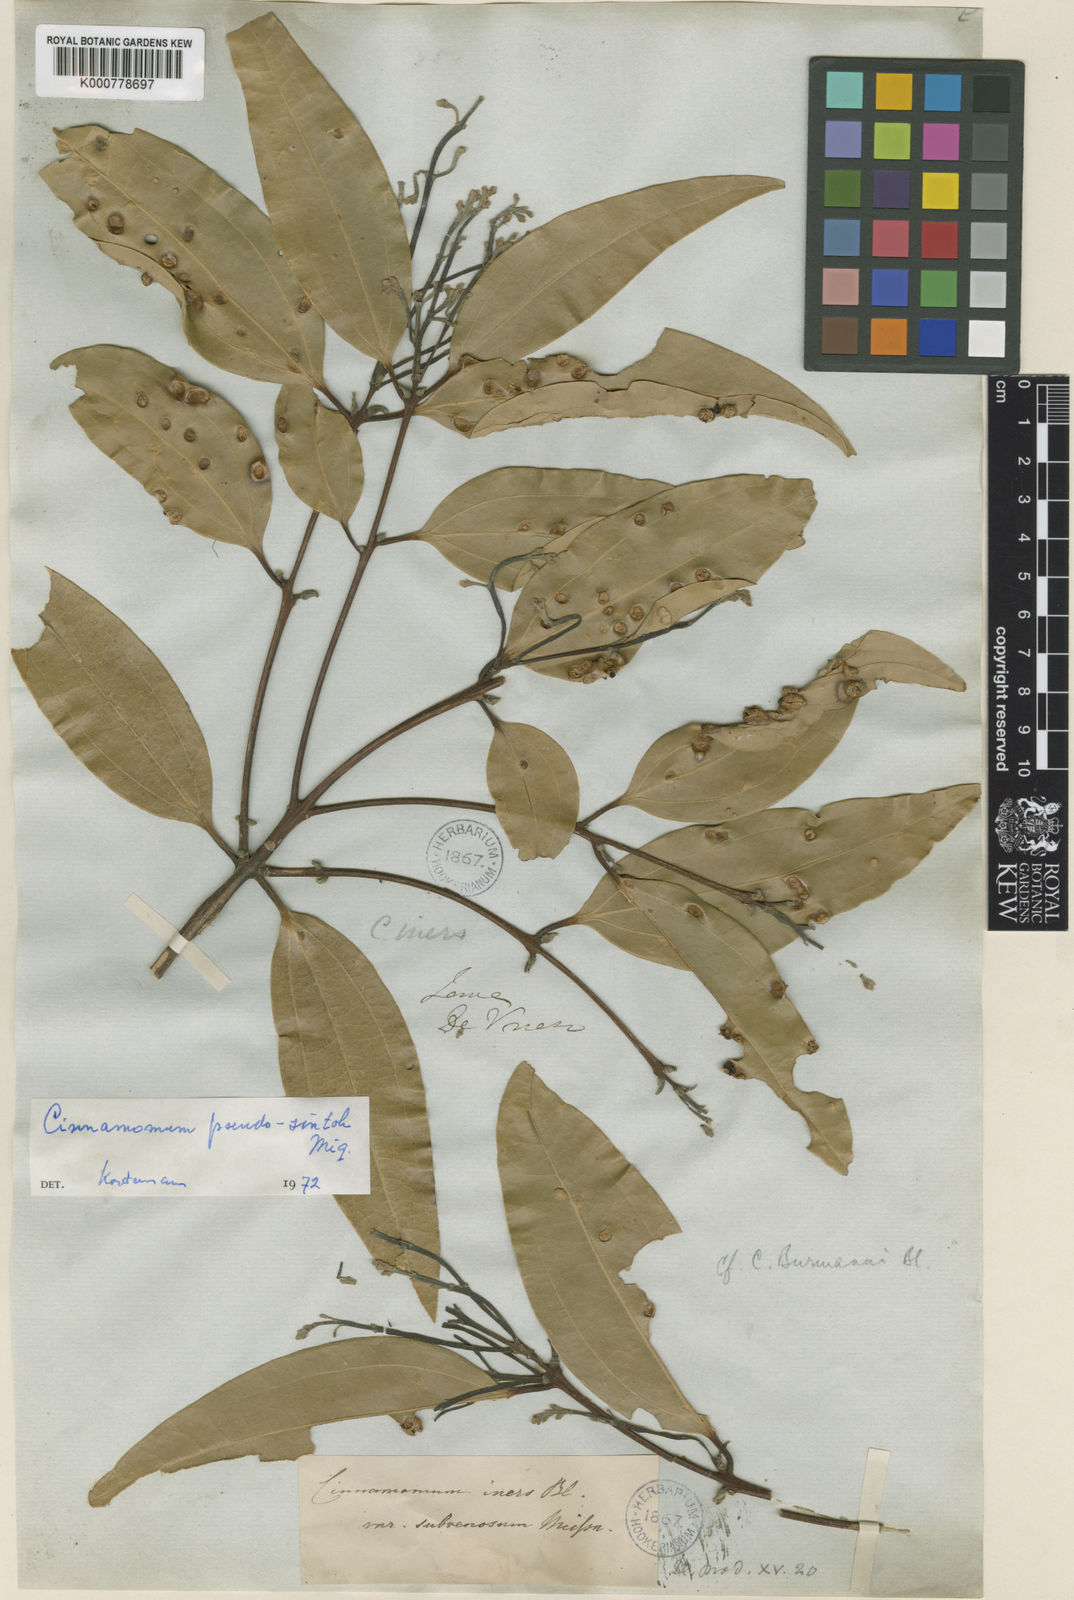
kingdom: Plantae
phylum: Tracheophyta
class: Magnoliopsida
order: Laurales
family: Lauraceae
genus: Cinnamomum
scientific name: Cinnamomum sintoc
